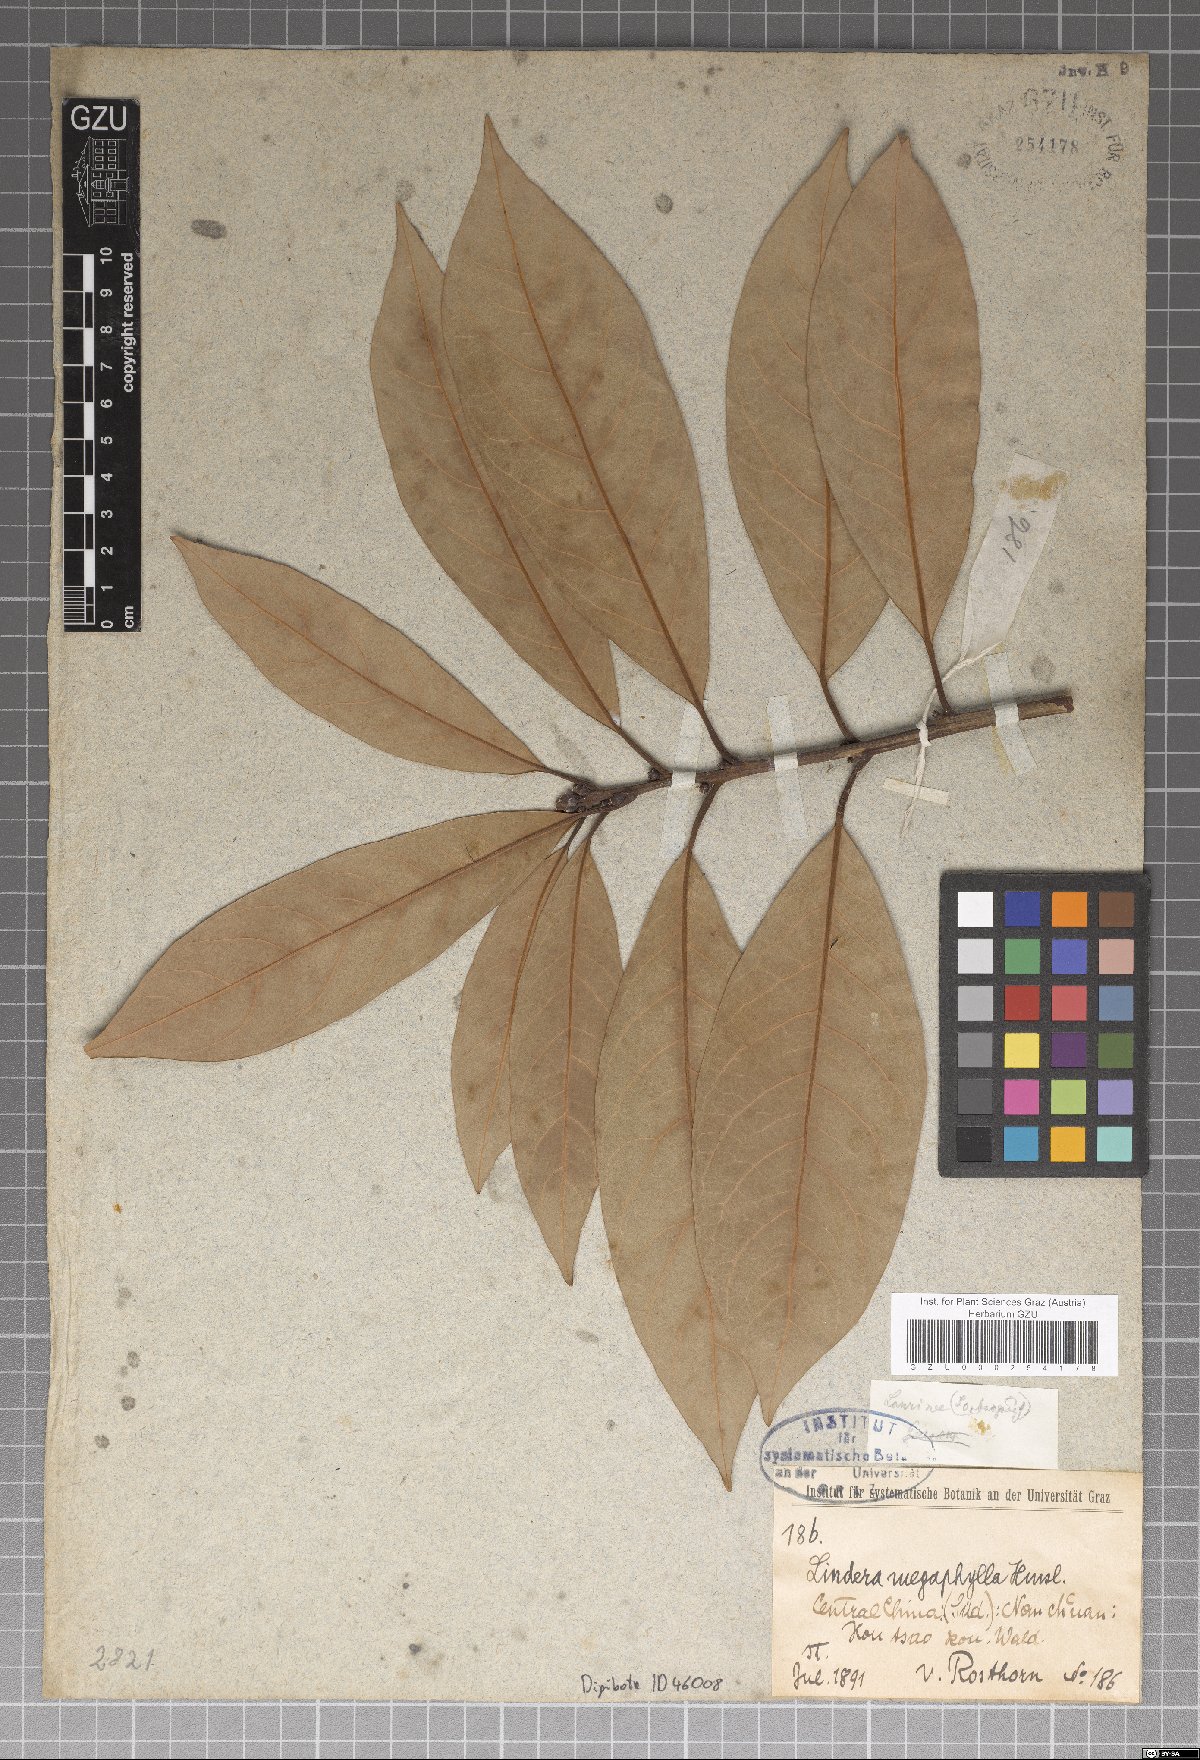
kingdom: Plantae
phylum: Tracheophyta
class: Magnoliopsida
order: Laurales
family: Lauraceae
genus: Lindera
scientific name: Lindera megaphylla
